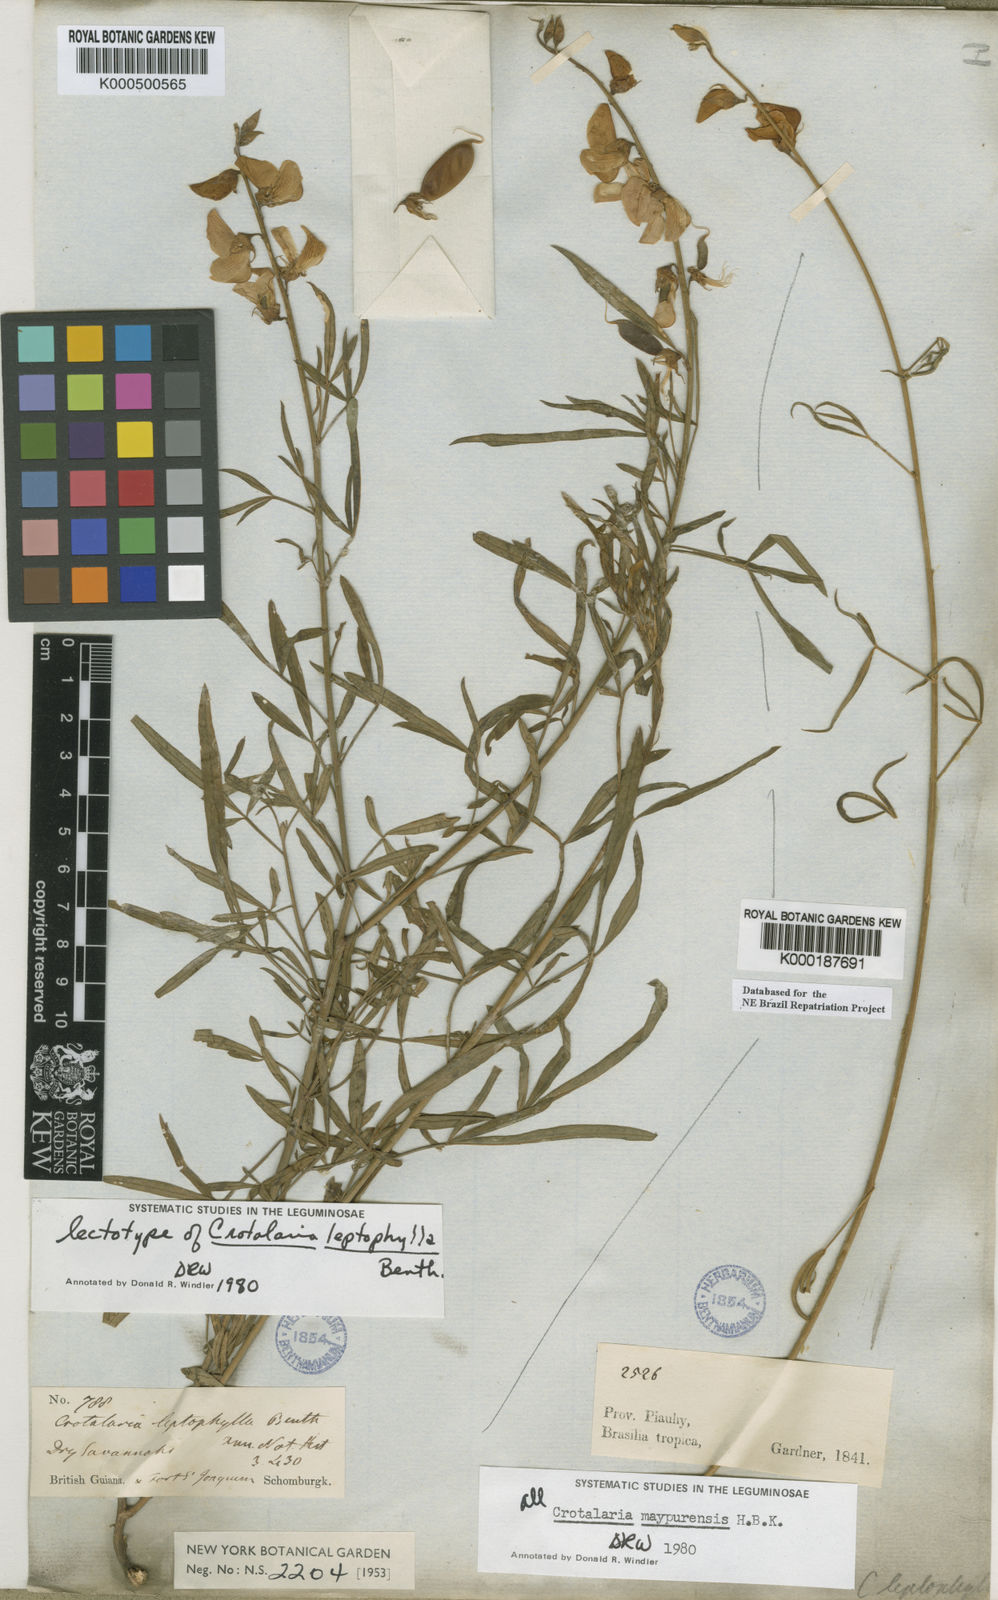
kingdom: Plantae
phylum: Tracheophyta
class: Magnoliopsida
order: Fabales
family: Fabaceae
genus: Crotalaria
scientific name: Crotalaria maypurensis
